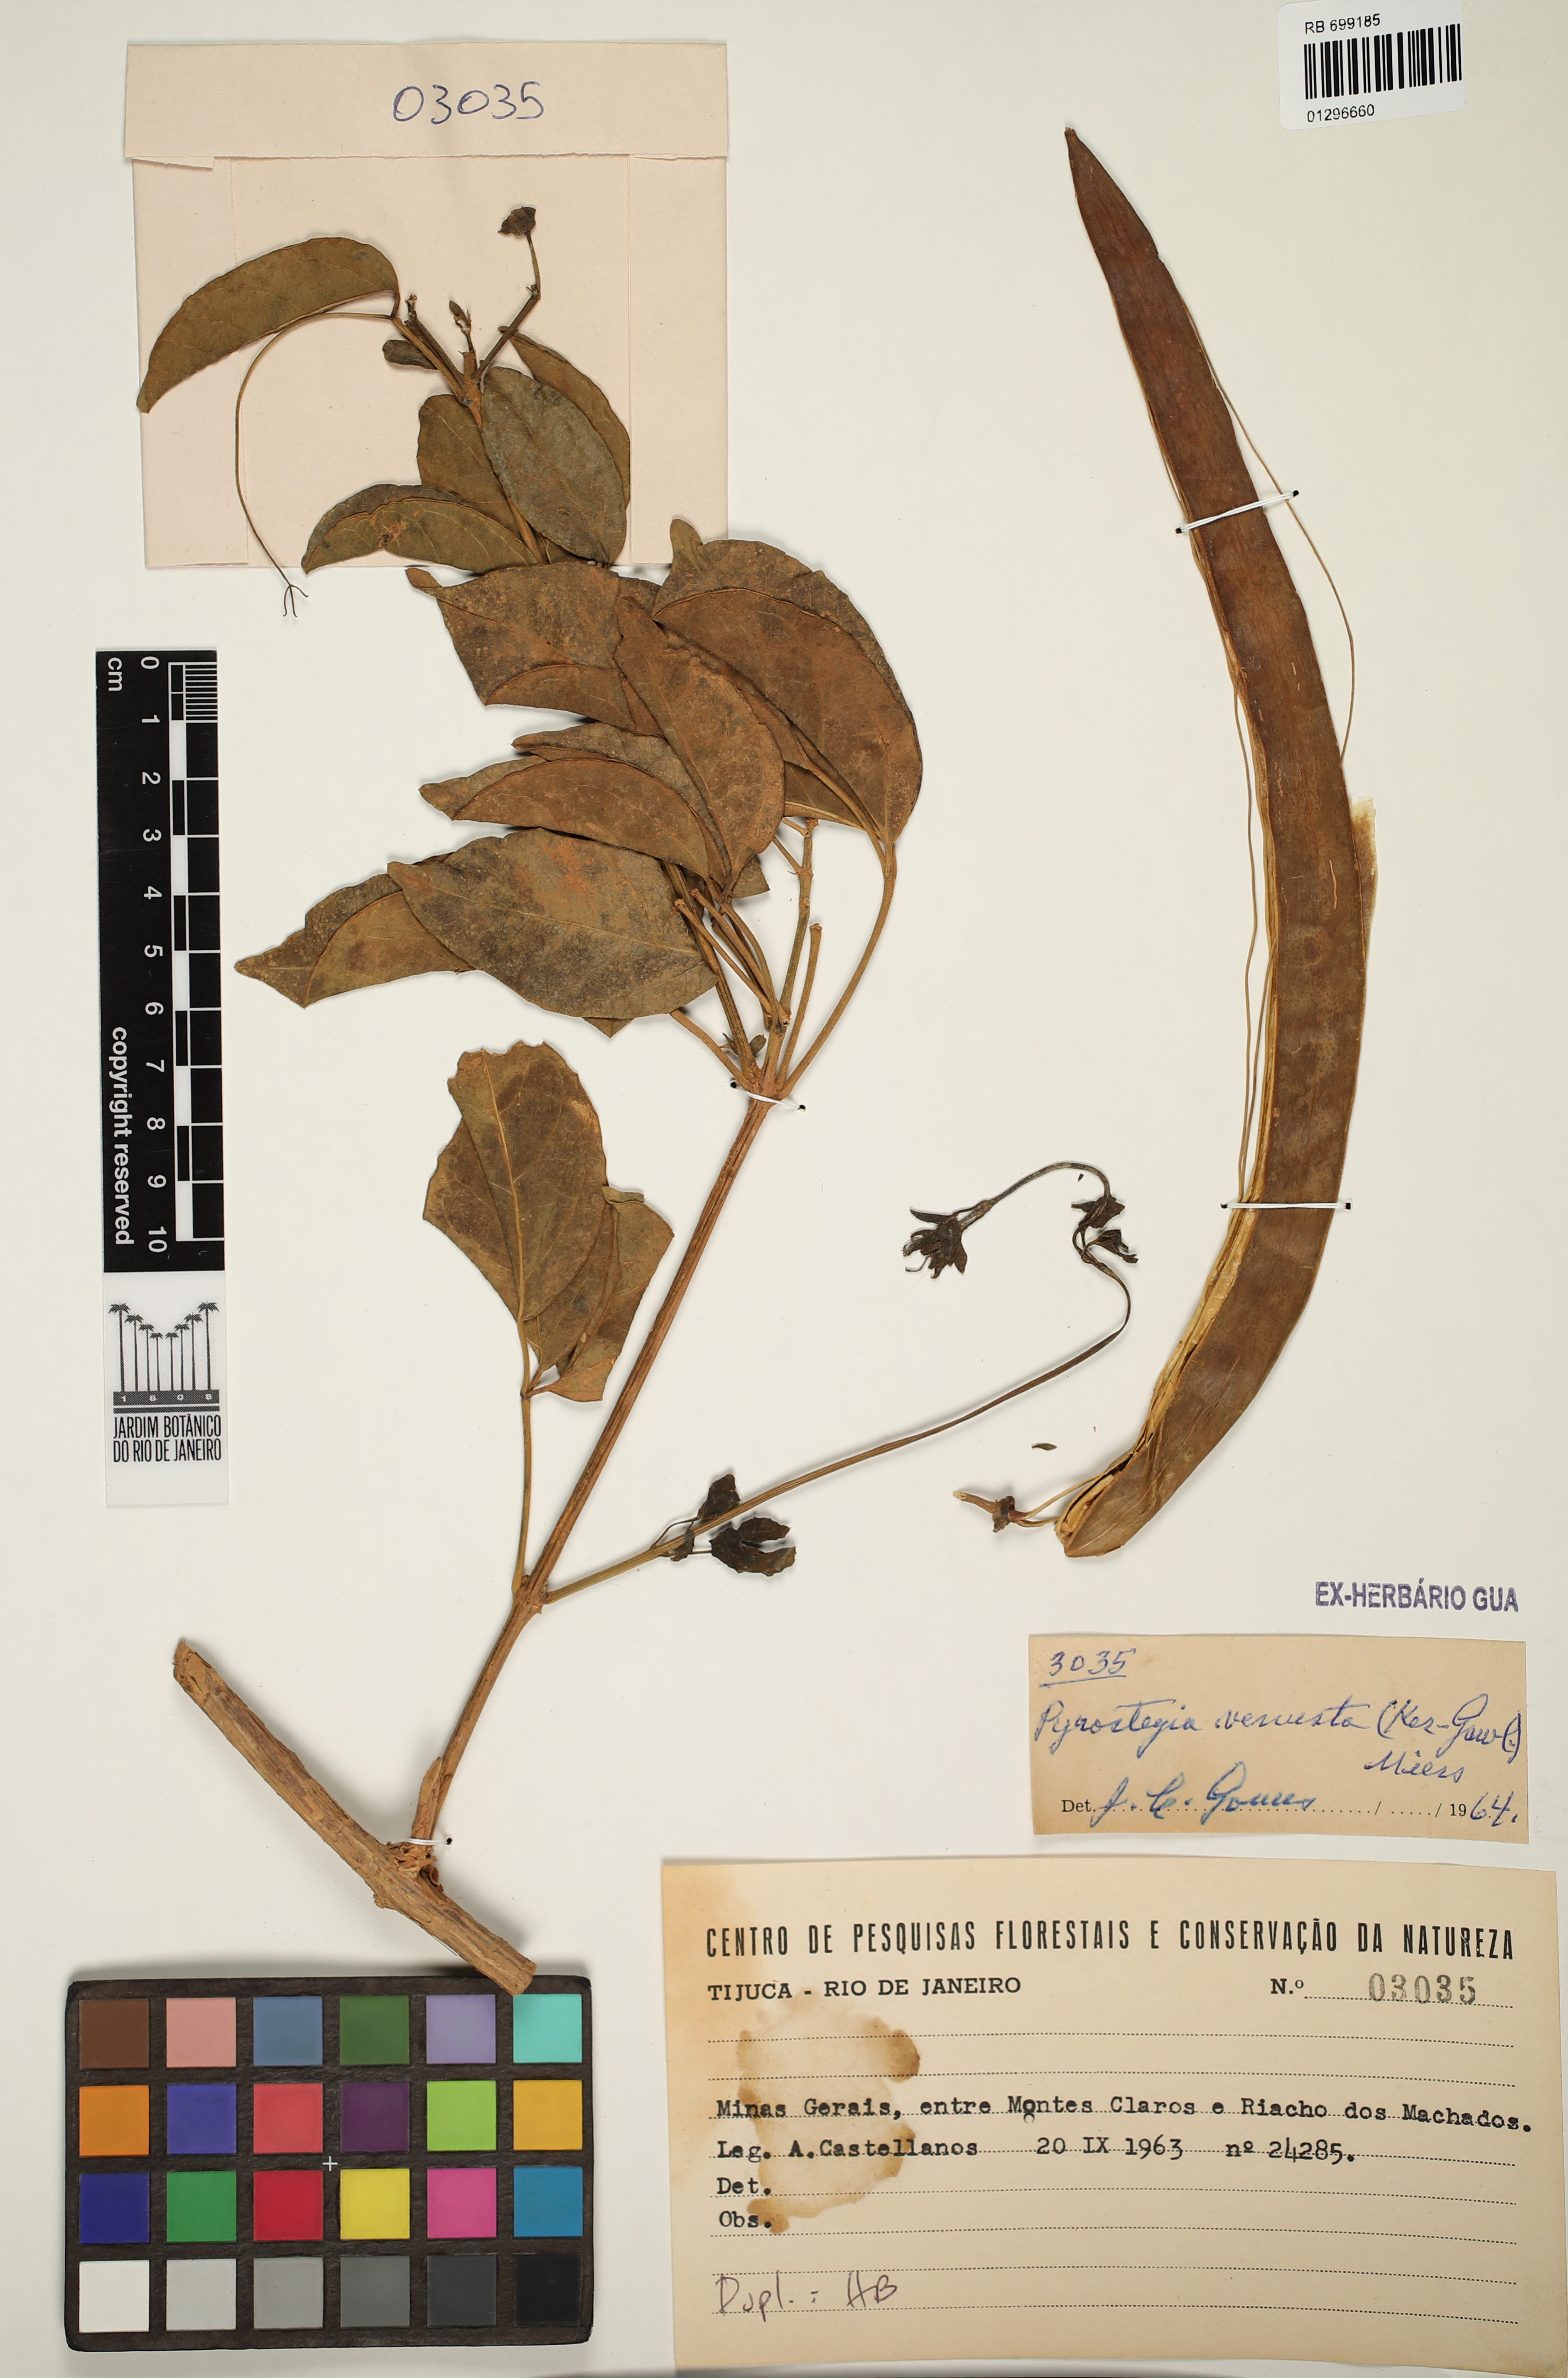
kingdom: Plantae
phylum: Tracheophyta
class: Magnoliopsida
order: Lamiales
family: Bignoniaceae
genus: Pyrostegia
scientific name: Pyrostegia venusta
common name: Flamevine
